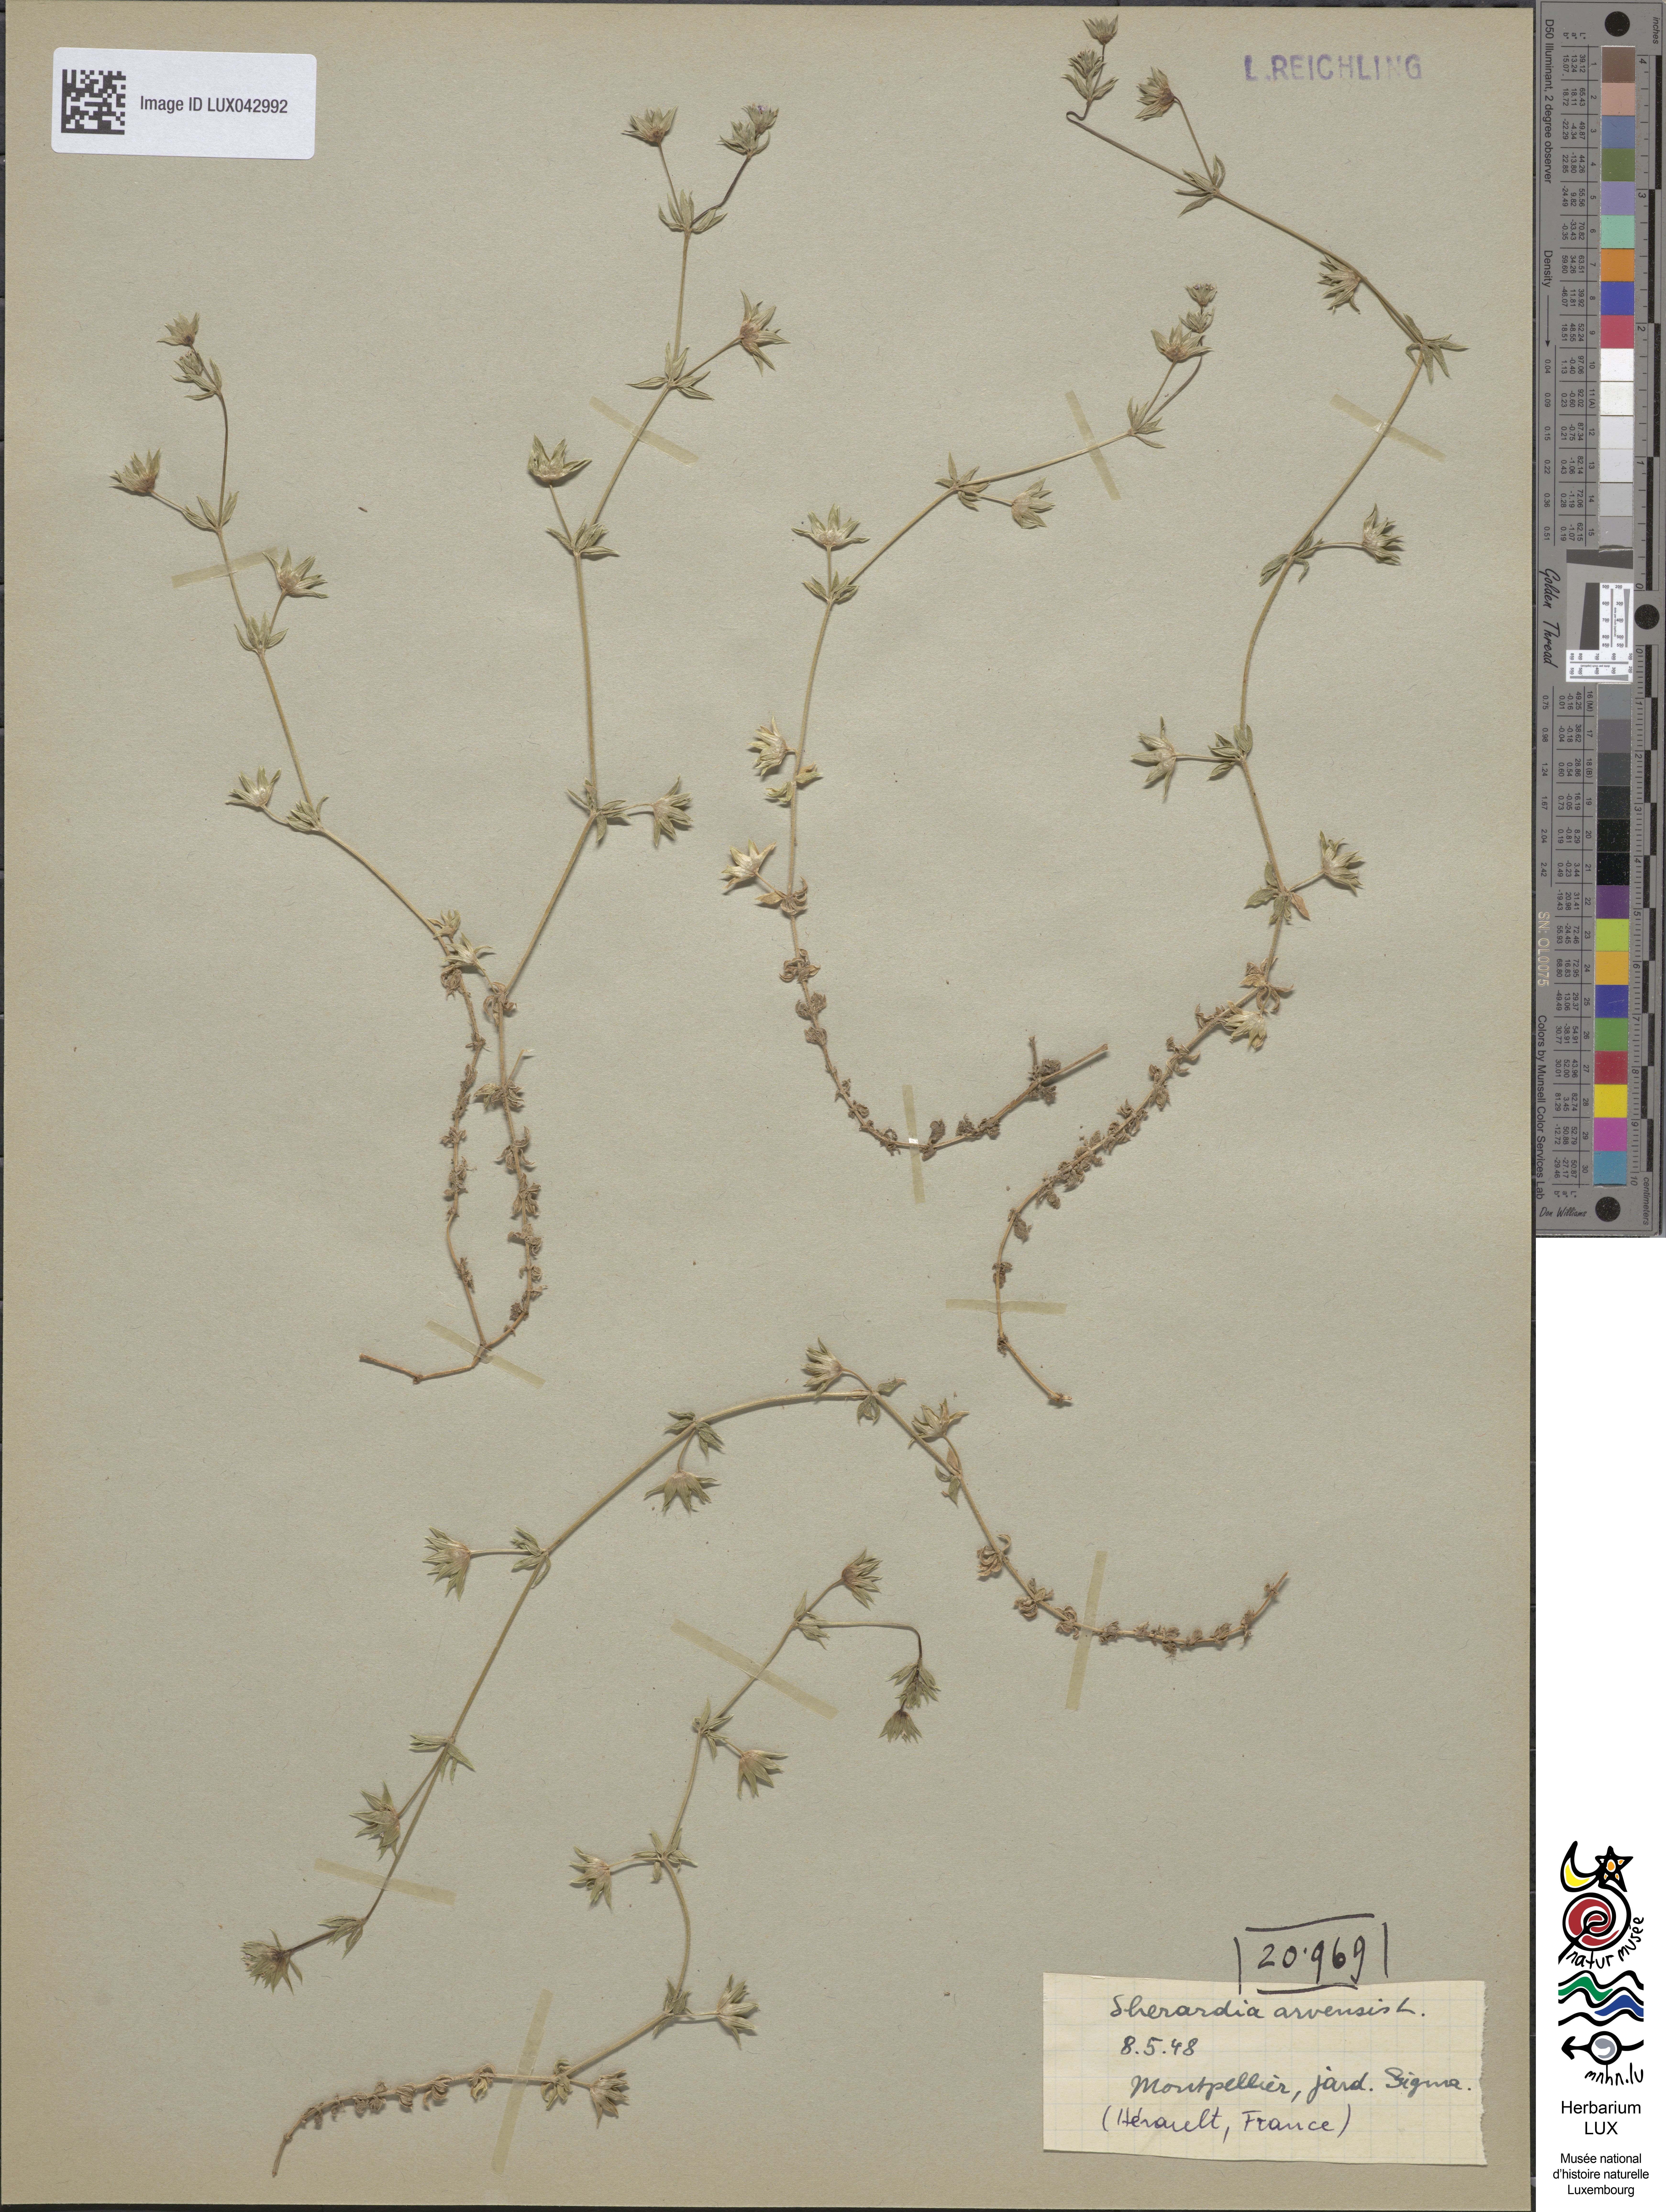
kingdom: Plantae
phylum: Tracheophyta
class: Magnoliopsida
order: Gentianales
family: Rubiaceae
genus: Sherardia
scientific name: Sherardia arvensis
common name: Field madder
